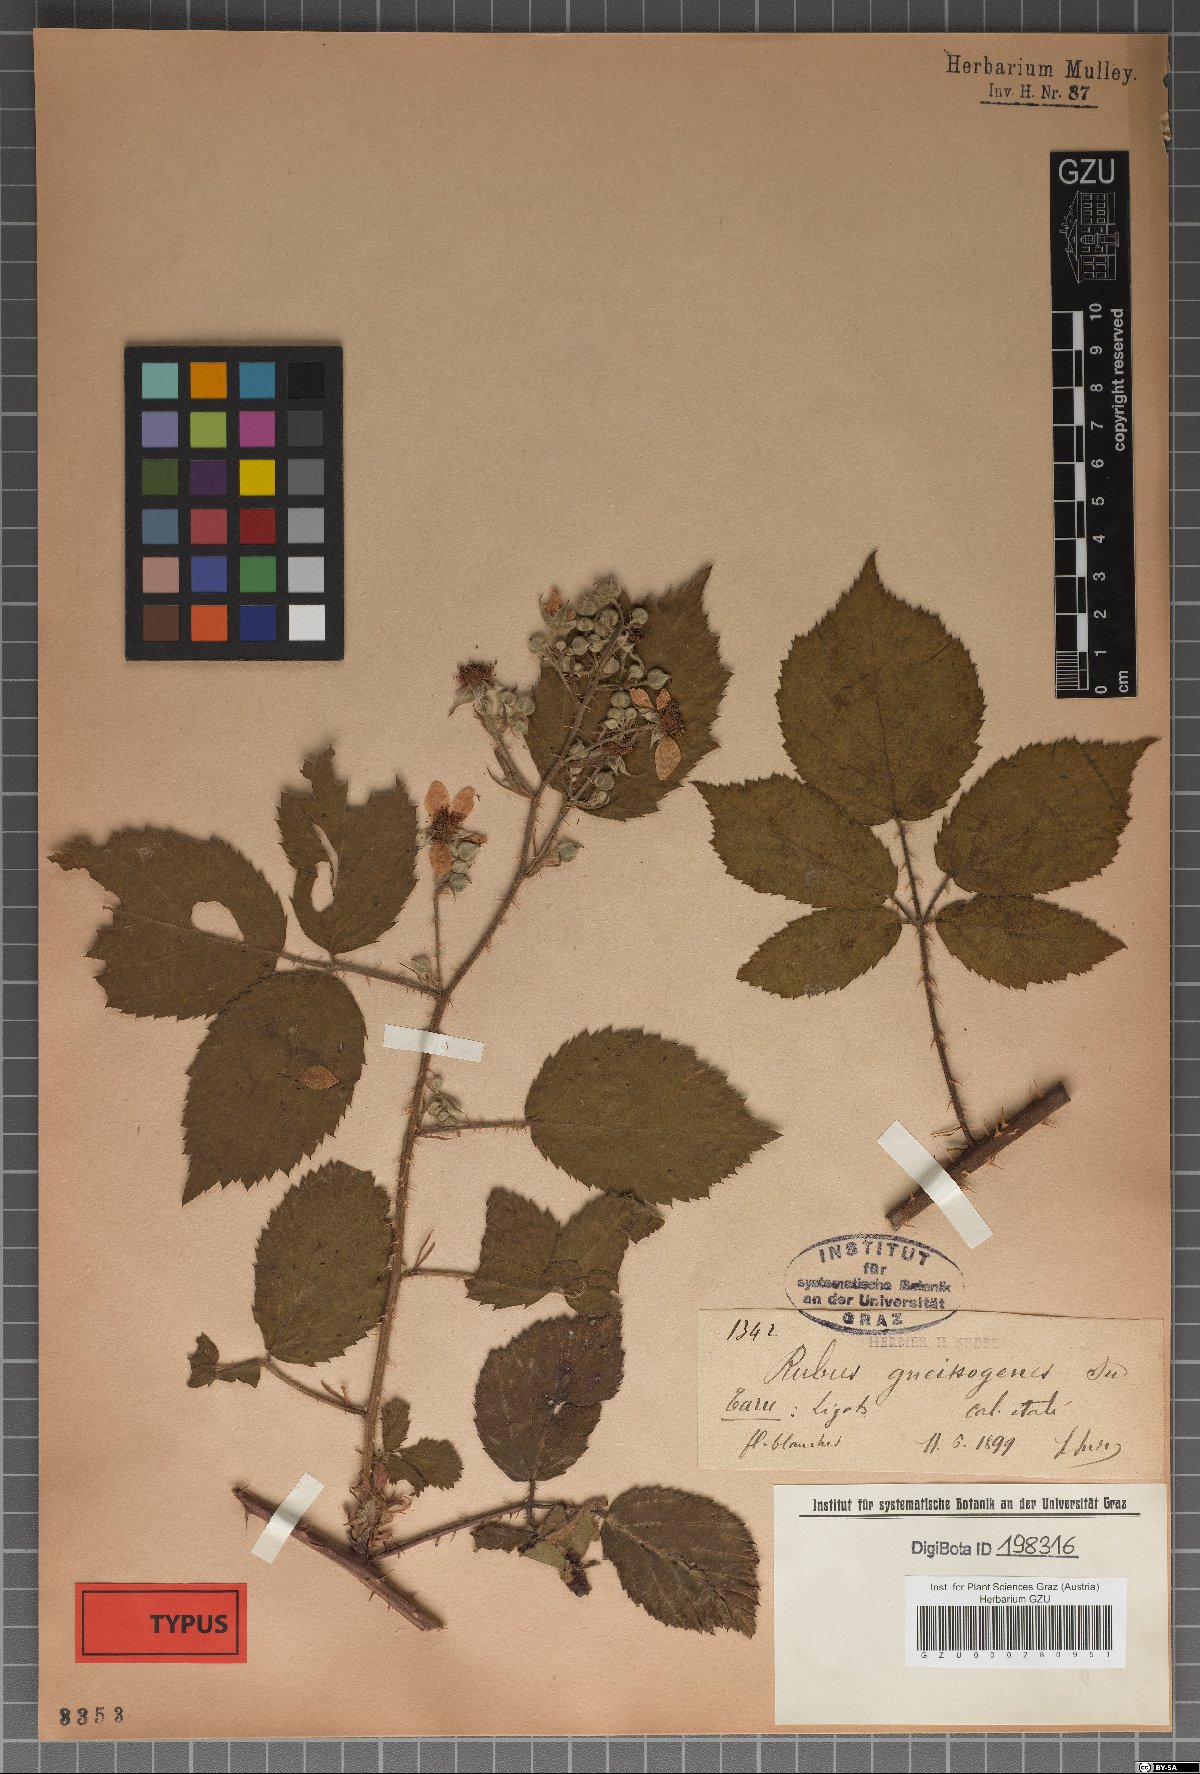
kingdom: Plantae
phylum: Tracheophyta
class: Magnoliopsida
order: Rosales
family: Rosaceae
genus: Rubus
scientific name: Rubus gneissogenes
